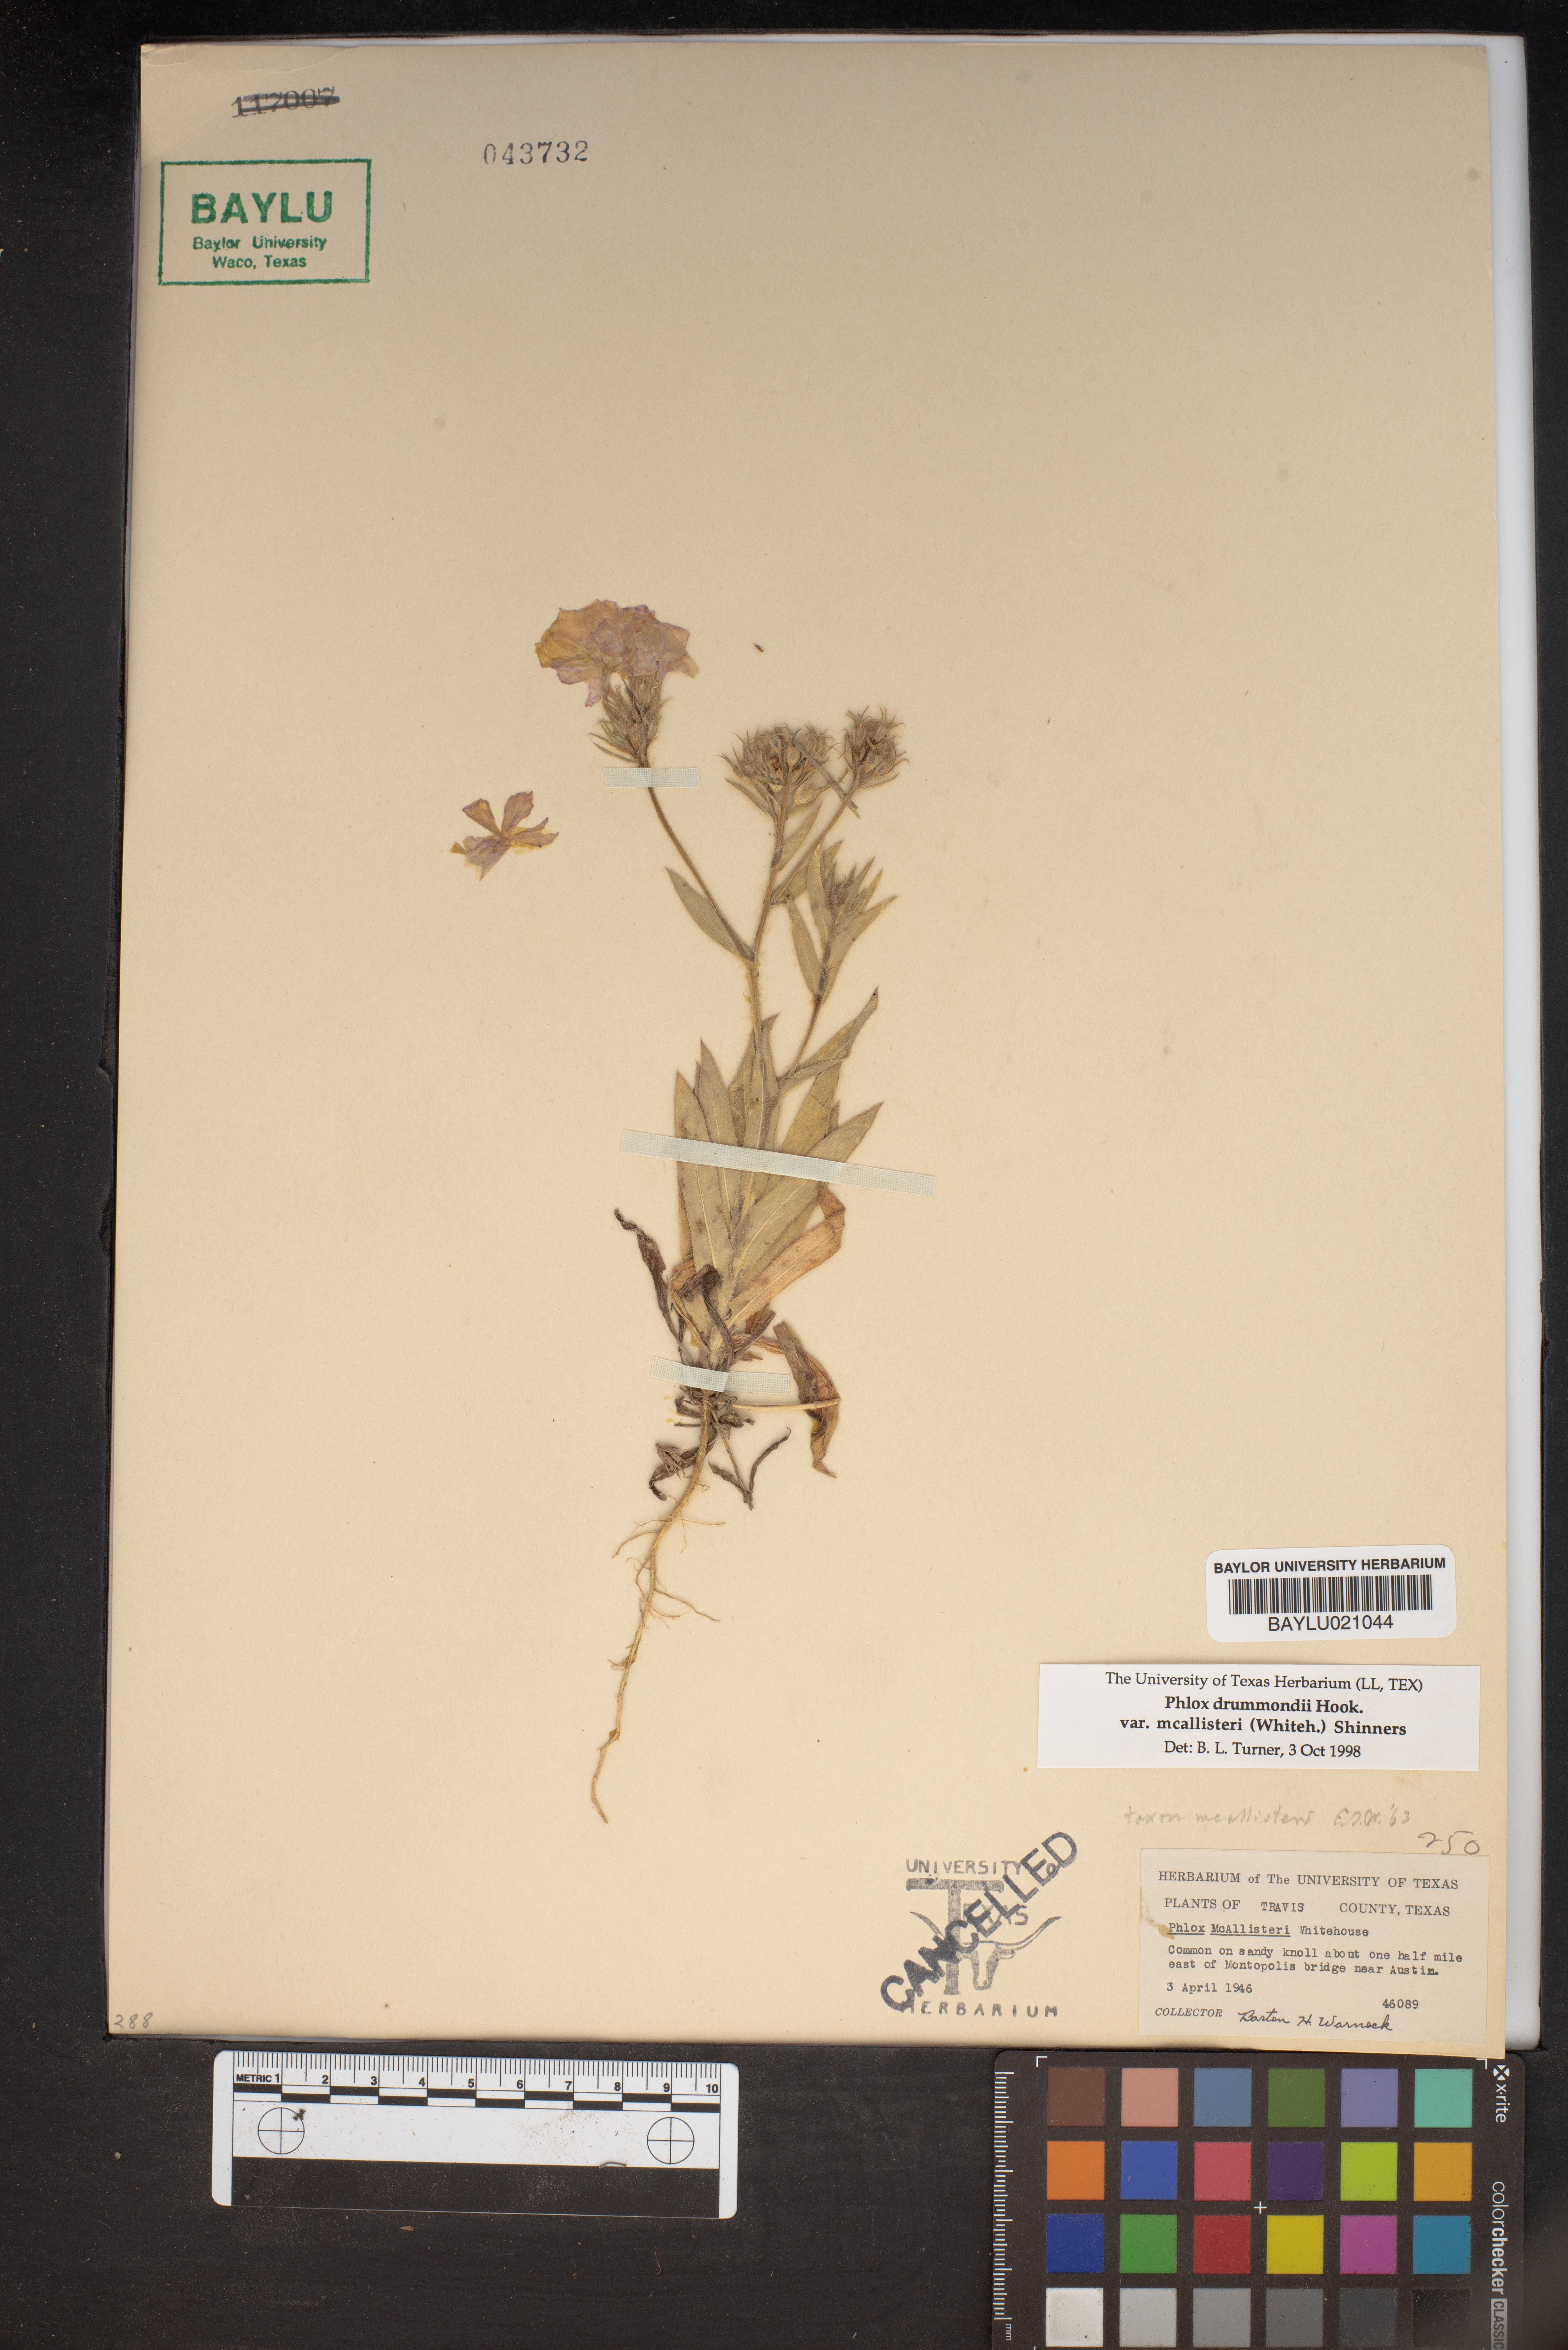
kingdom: Plantae
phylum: Tracheophyta
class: Magnoliopsida
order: Ericales
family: Polemoniaceae
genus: Phlox
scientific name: Phlox drummondii
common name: Drummond's phlox
